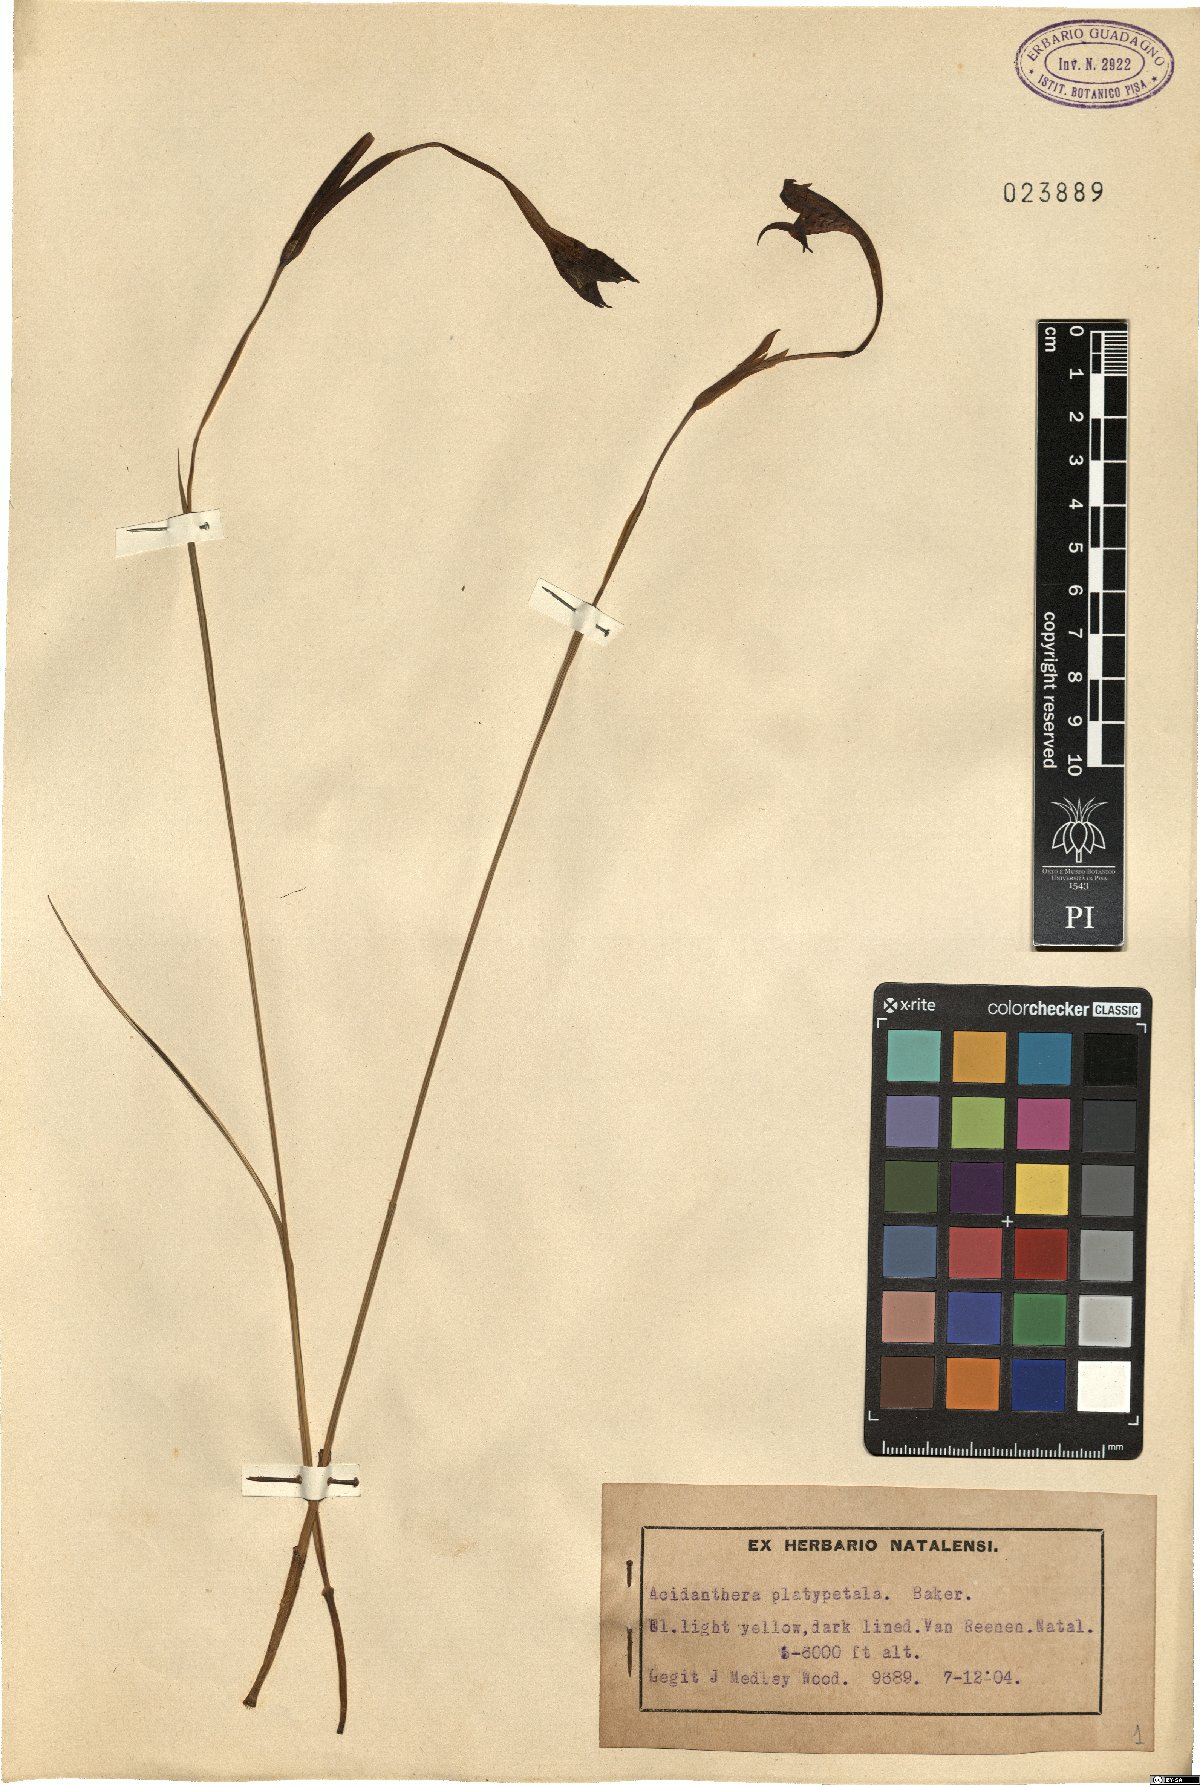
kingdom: Plantae
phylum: Tracheophyta
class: Liliopsida
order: Asparagales
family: Iridaceae
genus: Gladiolus
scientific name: Gladiolus longicollis
